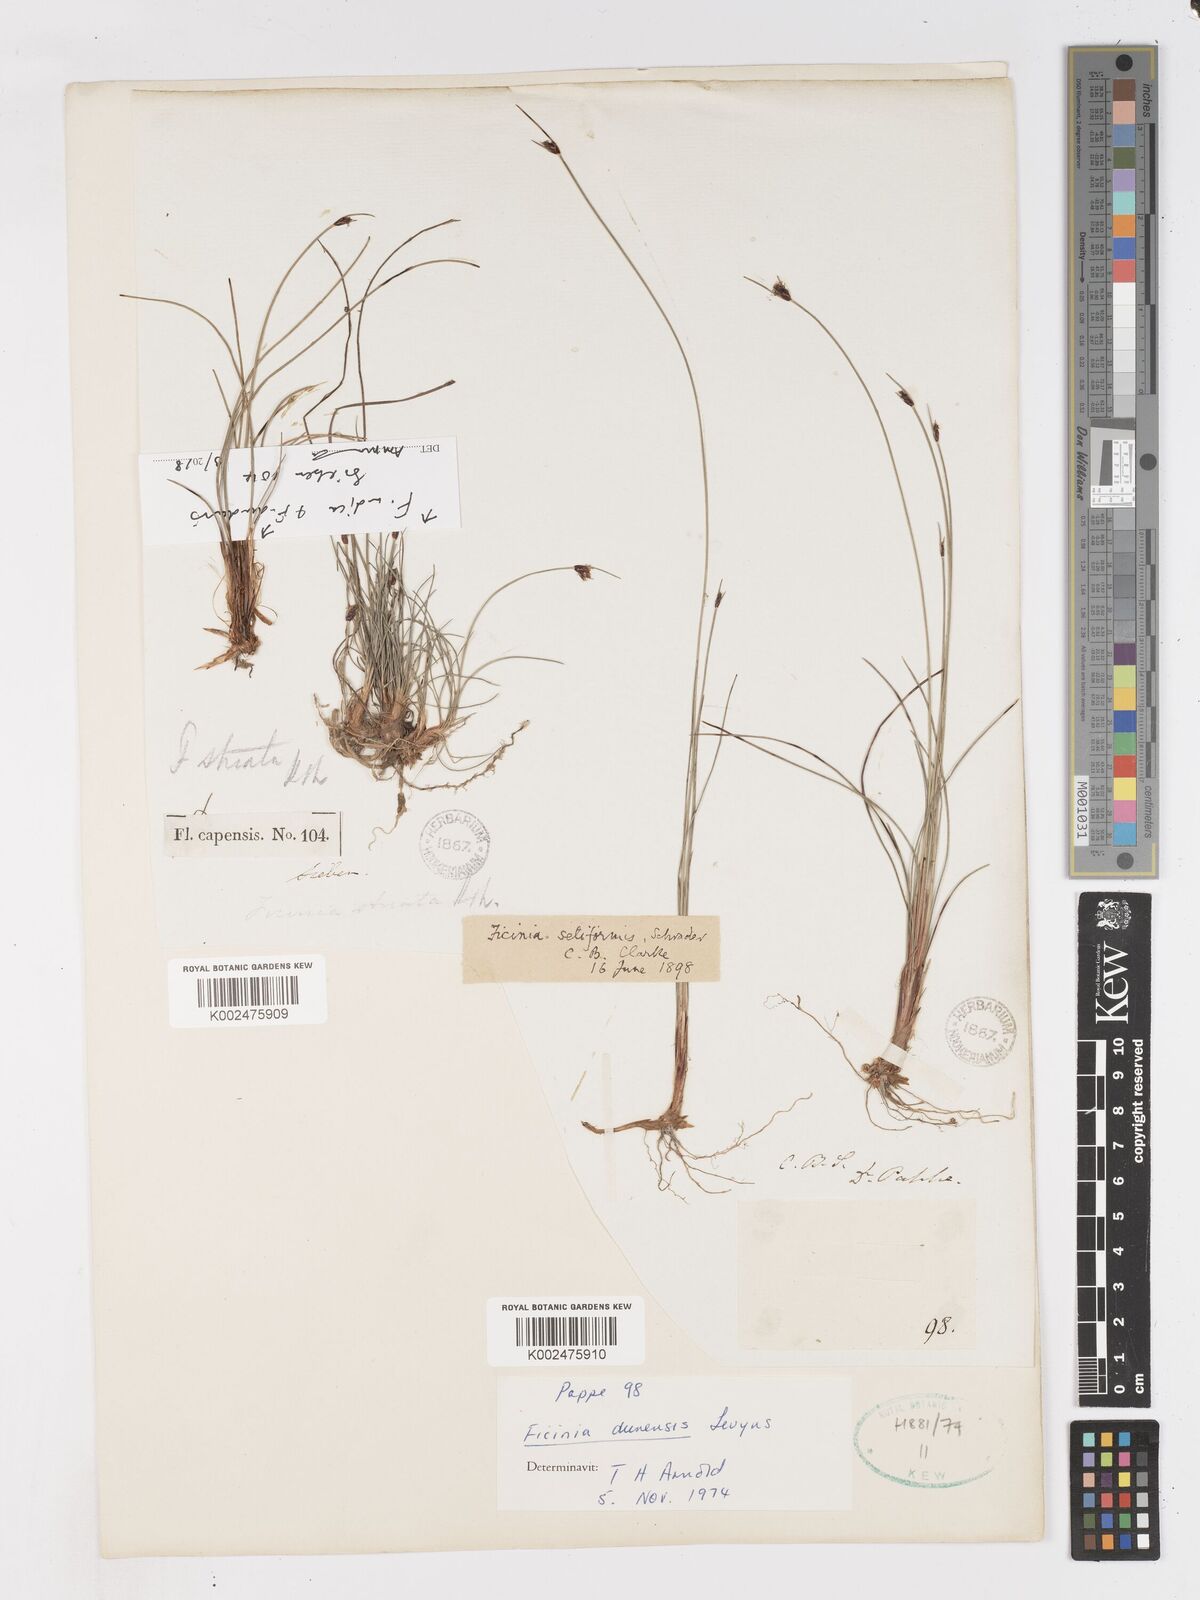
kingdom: Plantae
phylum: Tracheophyta
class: Liliopsida
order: Poales
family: Cyperaceae
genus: Ficinia
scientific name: Ficinia dunensis
